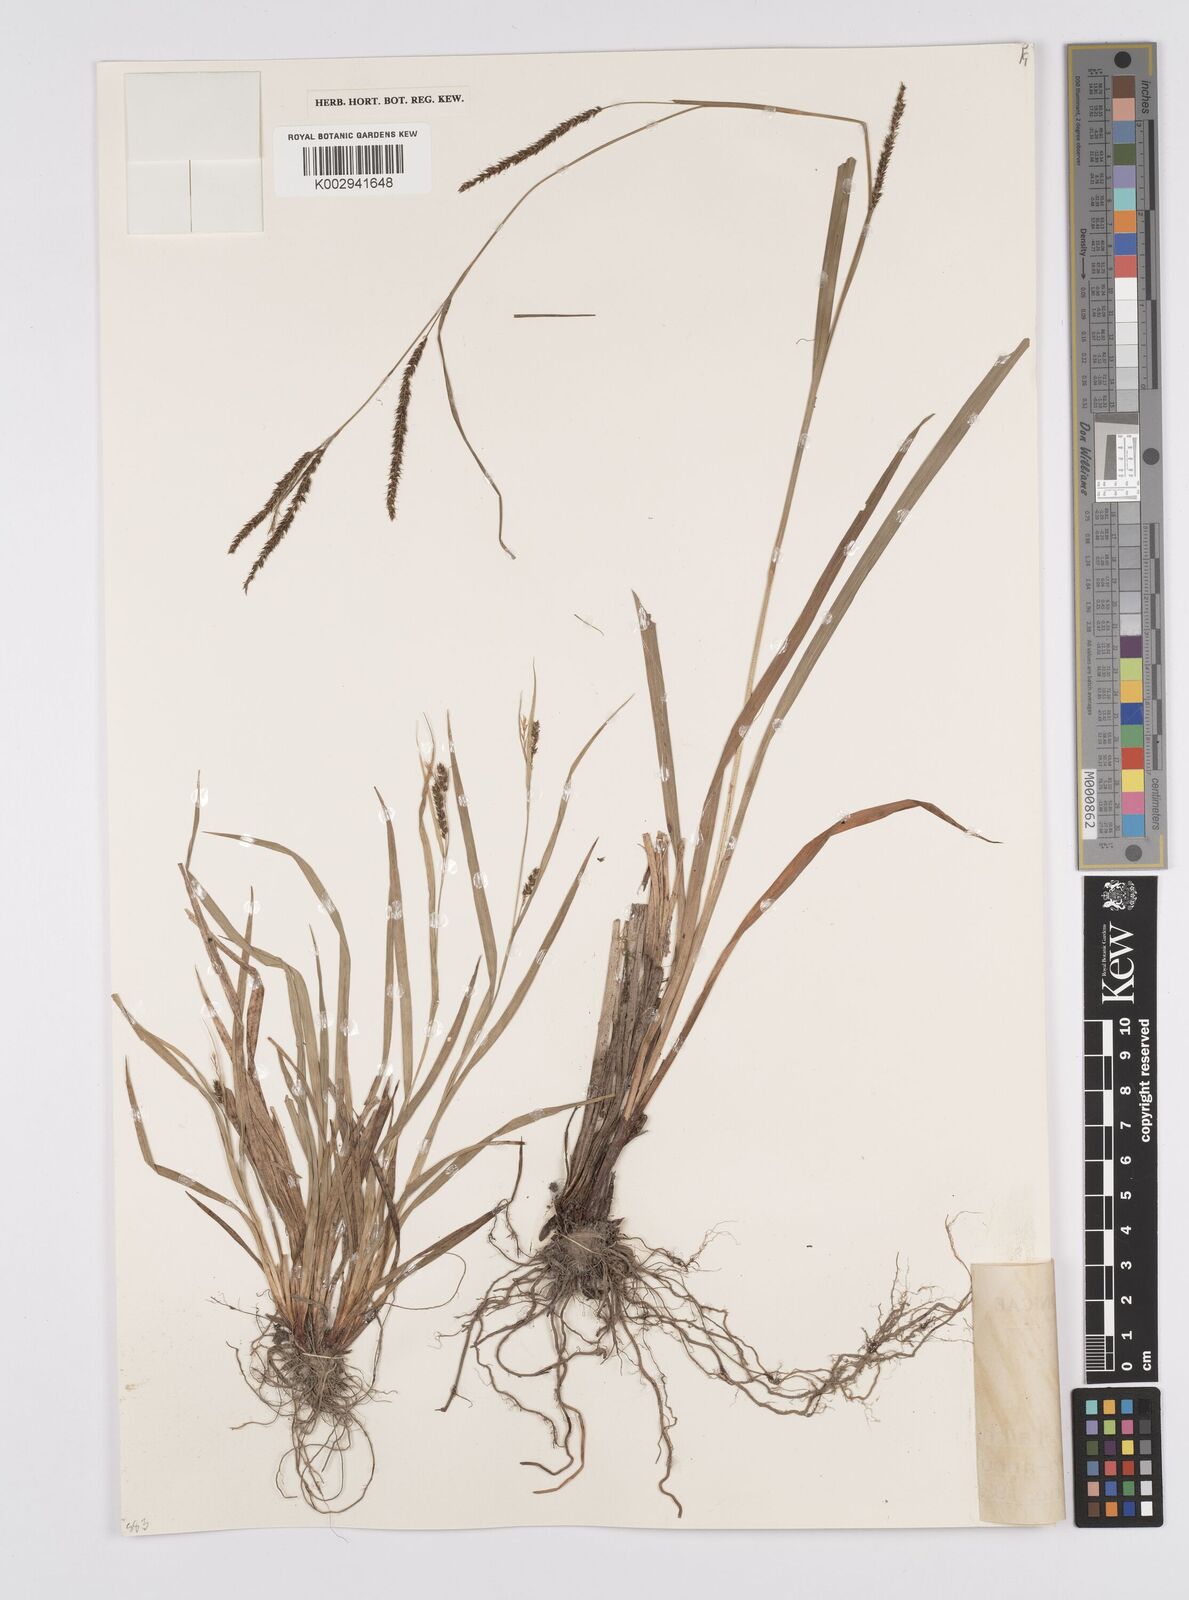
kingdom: Plantae
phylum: Tracheophyta
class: Liliopsida
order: Poales
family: Cyperaceae
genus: Carex
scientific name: Carex sclerocarpa
